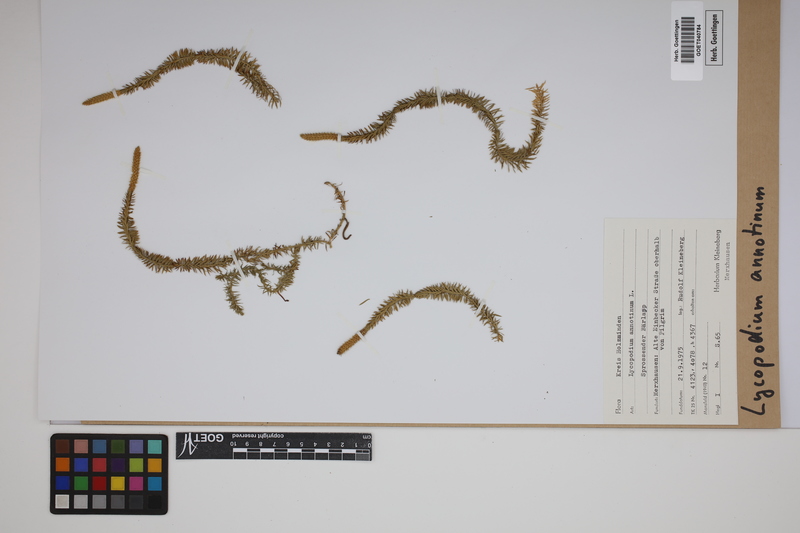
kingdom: Plantae
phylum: Tracheophyta
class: Lycopodiopsida
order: Lycopodiales
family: Lycopodiaceae
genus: Spinulum
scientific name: Spinulum annotinum
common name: Interrupted club-moss
